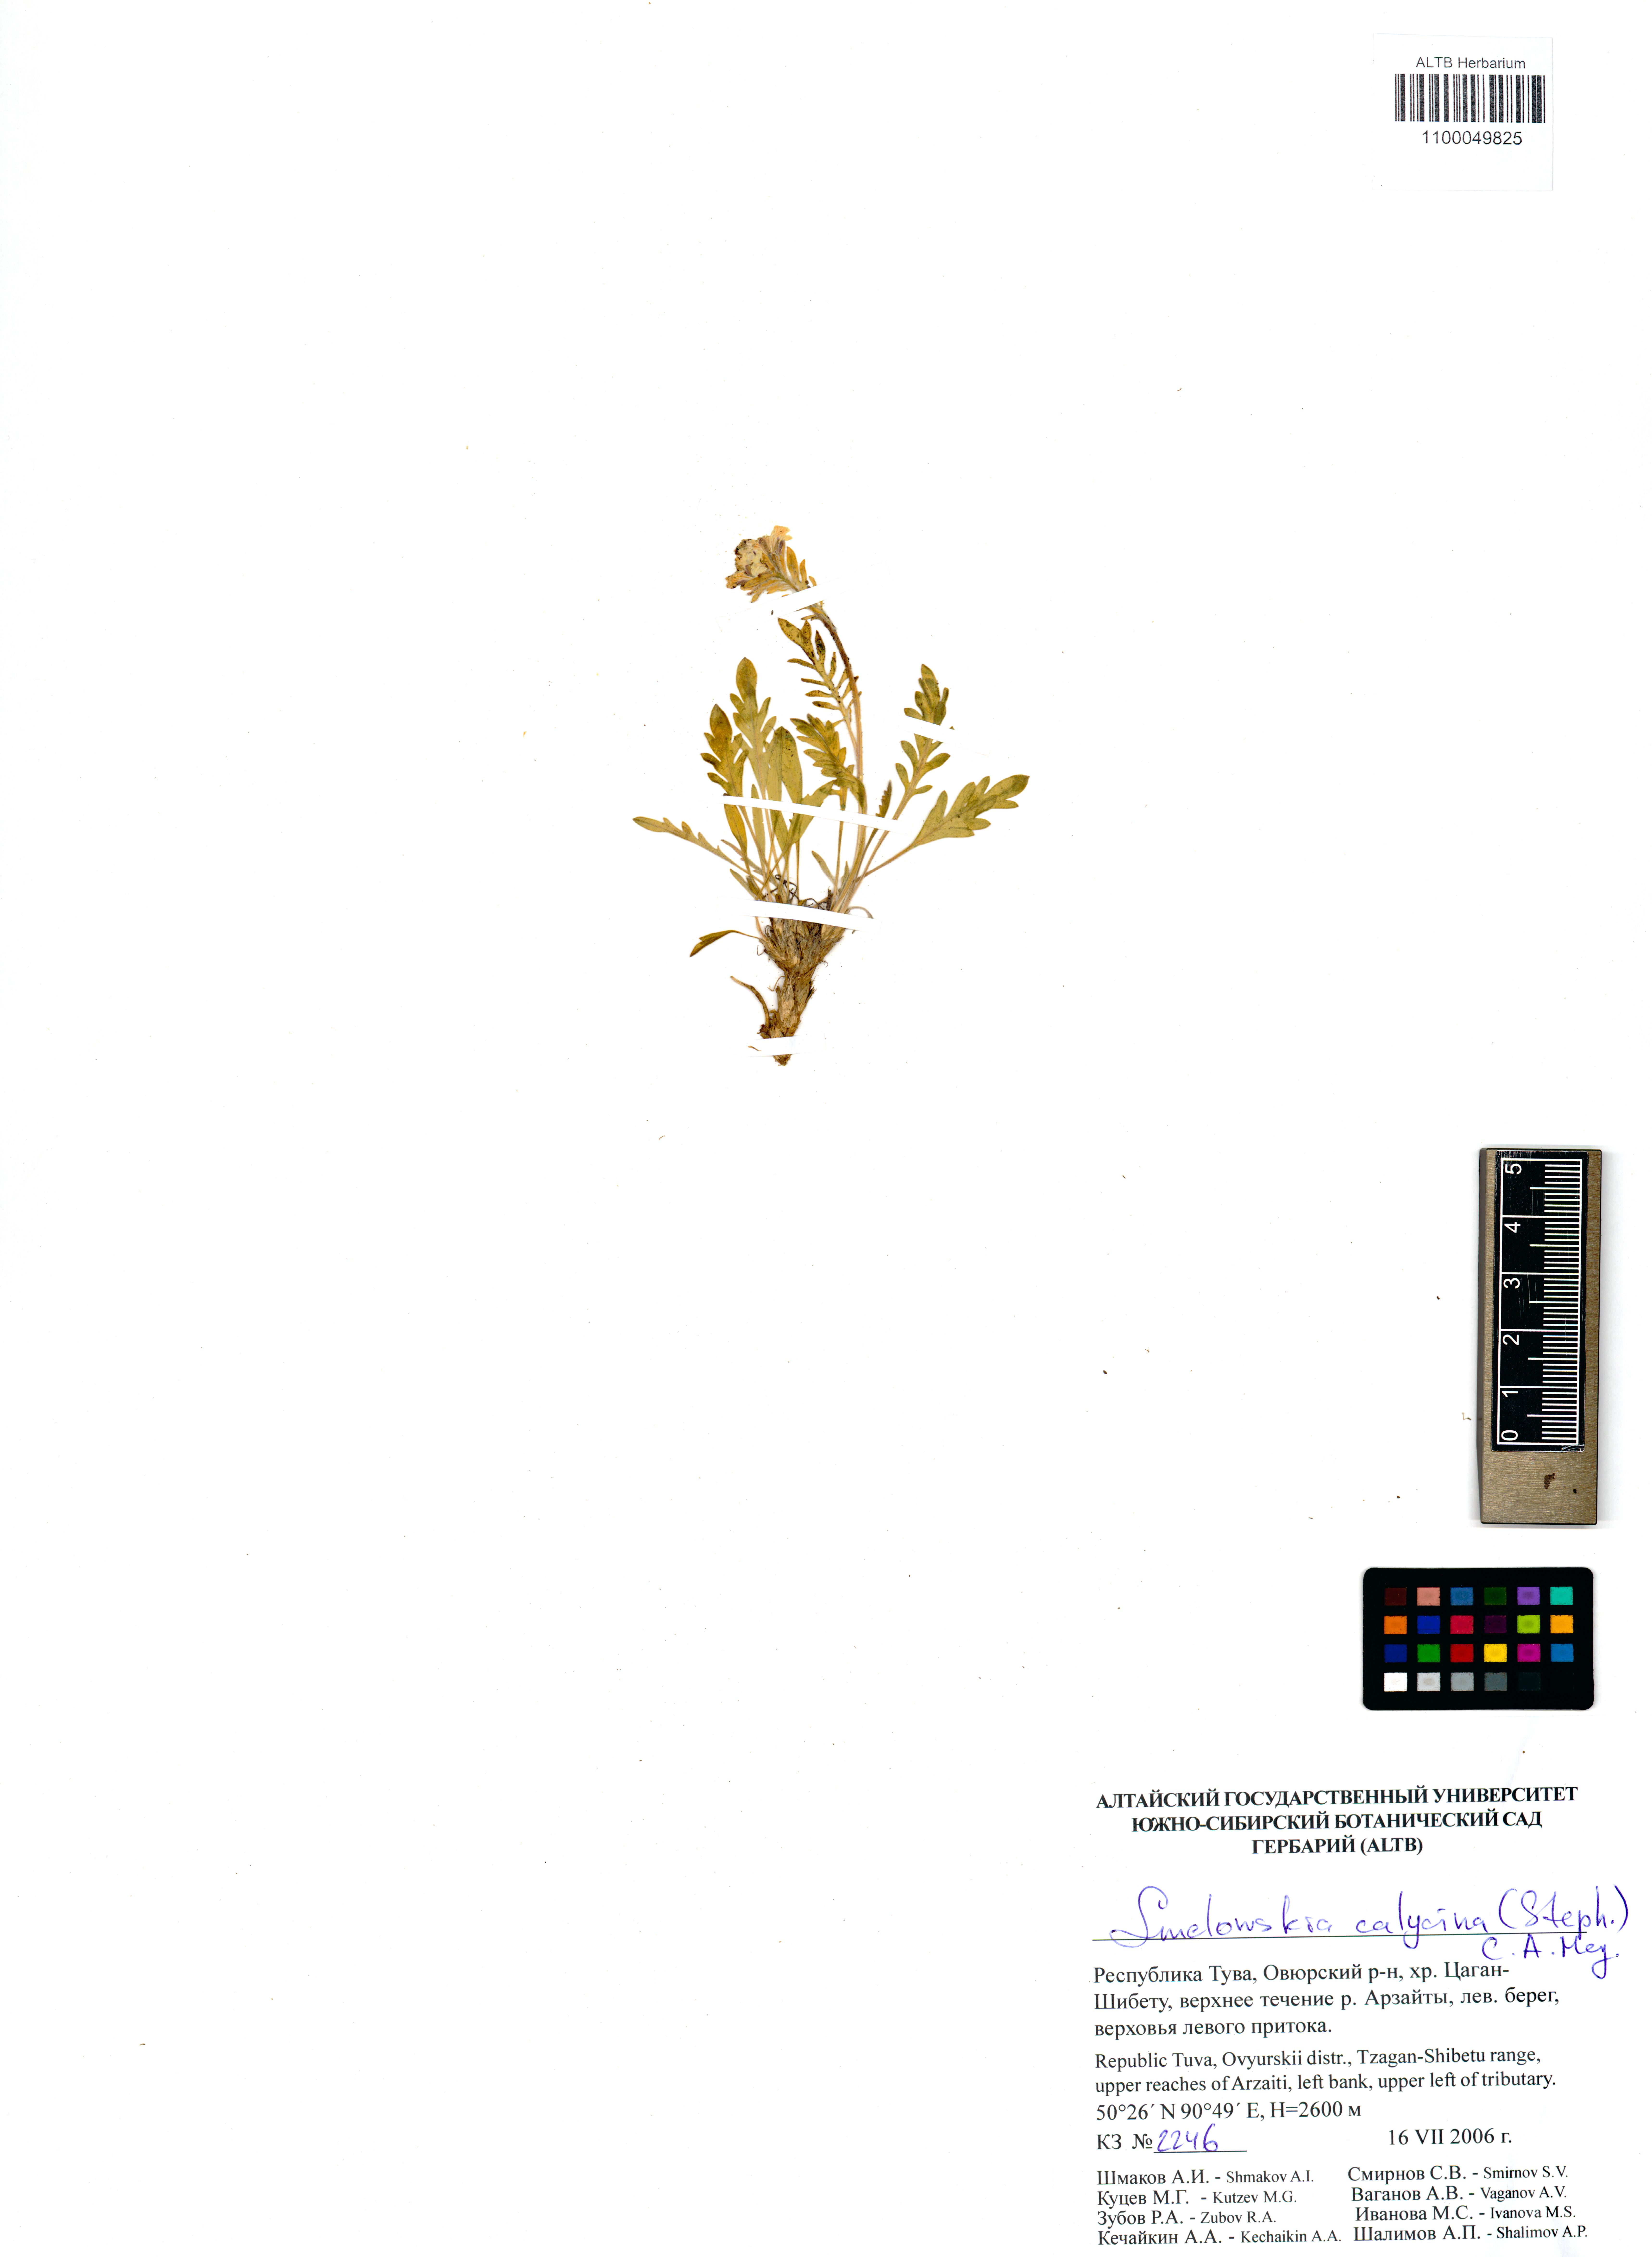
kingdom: Plantae
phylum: Tracheophyta
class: Magnoliopsida
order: Brassicales
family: Brassicaceae
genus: Smelowskia
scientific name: Smelowskia calycina
